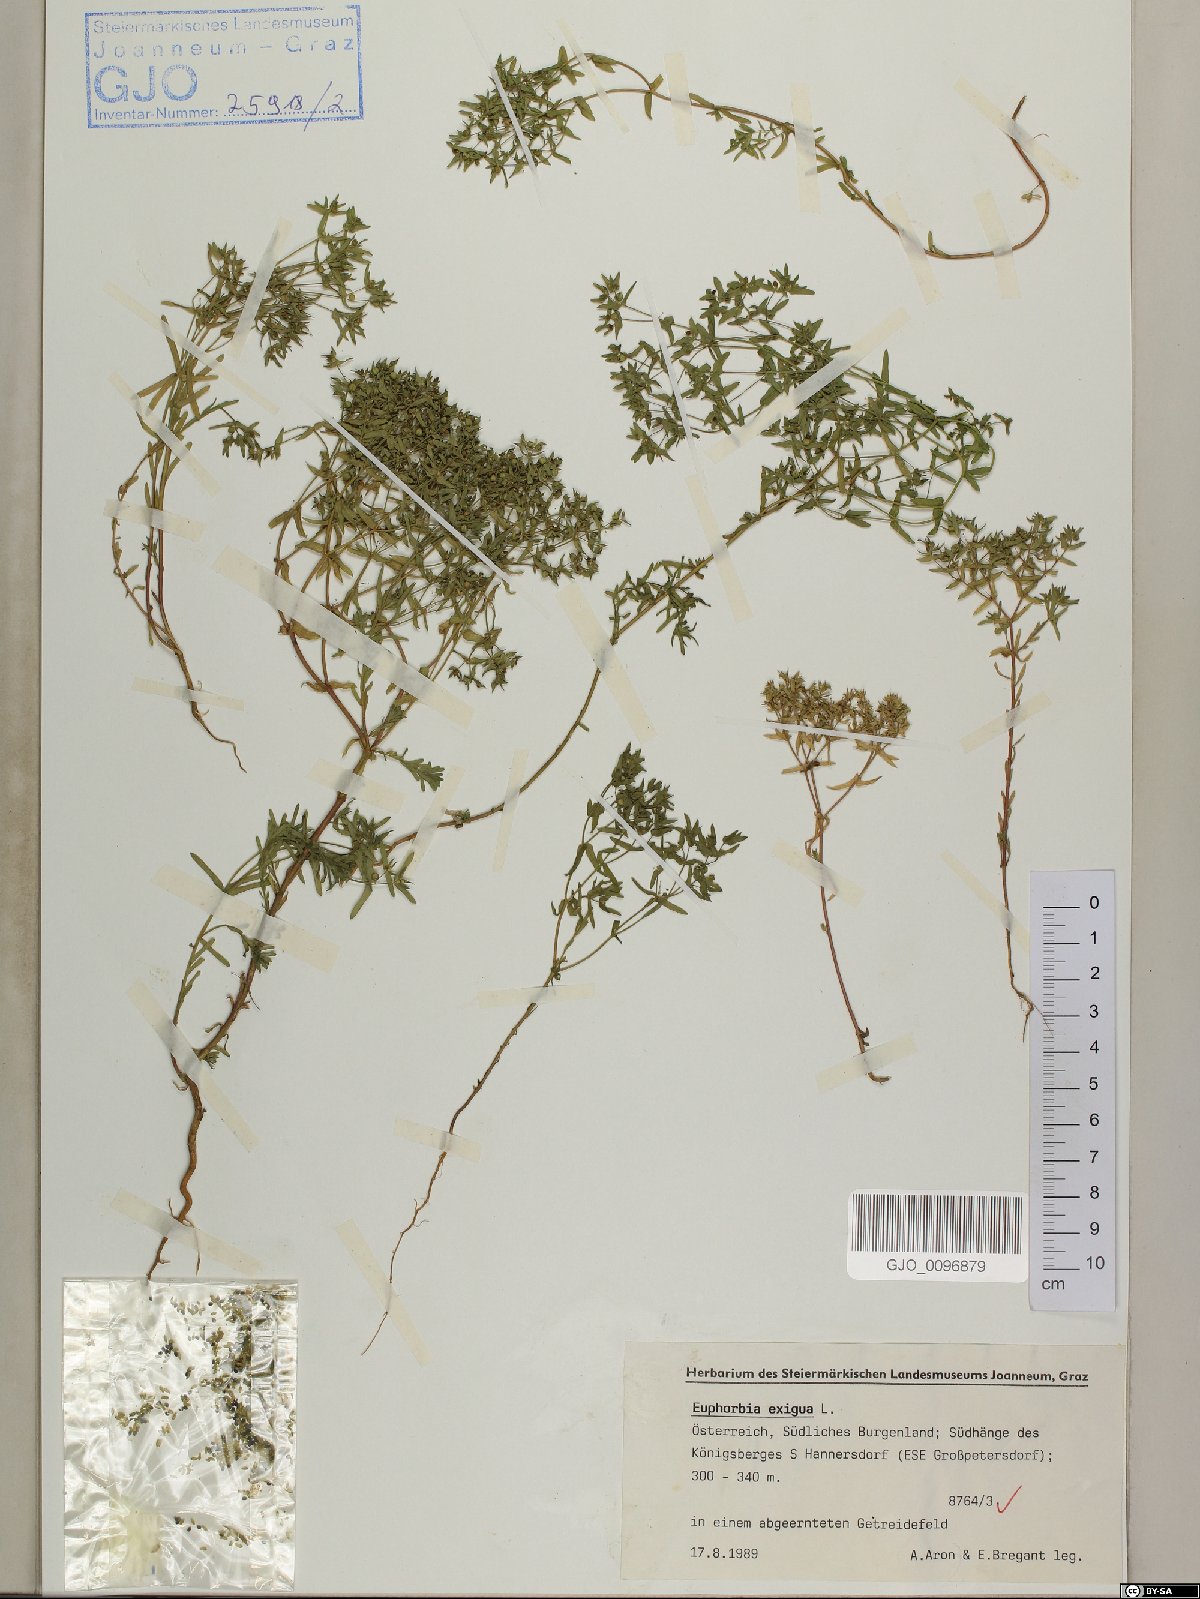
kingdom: Plantae
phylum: Tracheophyta
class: Magnoliopsida
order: Malpighiales
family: Euphorbiaceae
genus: Euphorbia
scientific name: Euphorbia exigua
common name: Dwarf spurge
